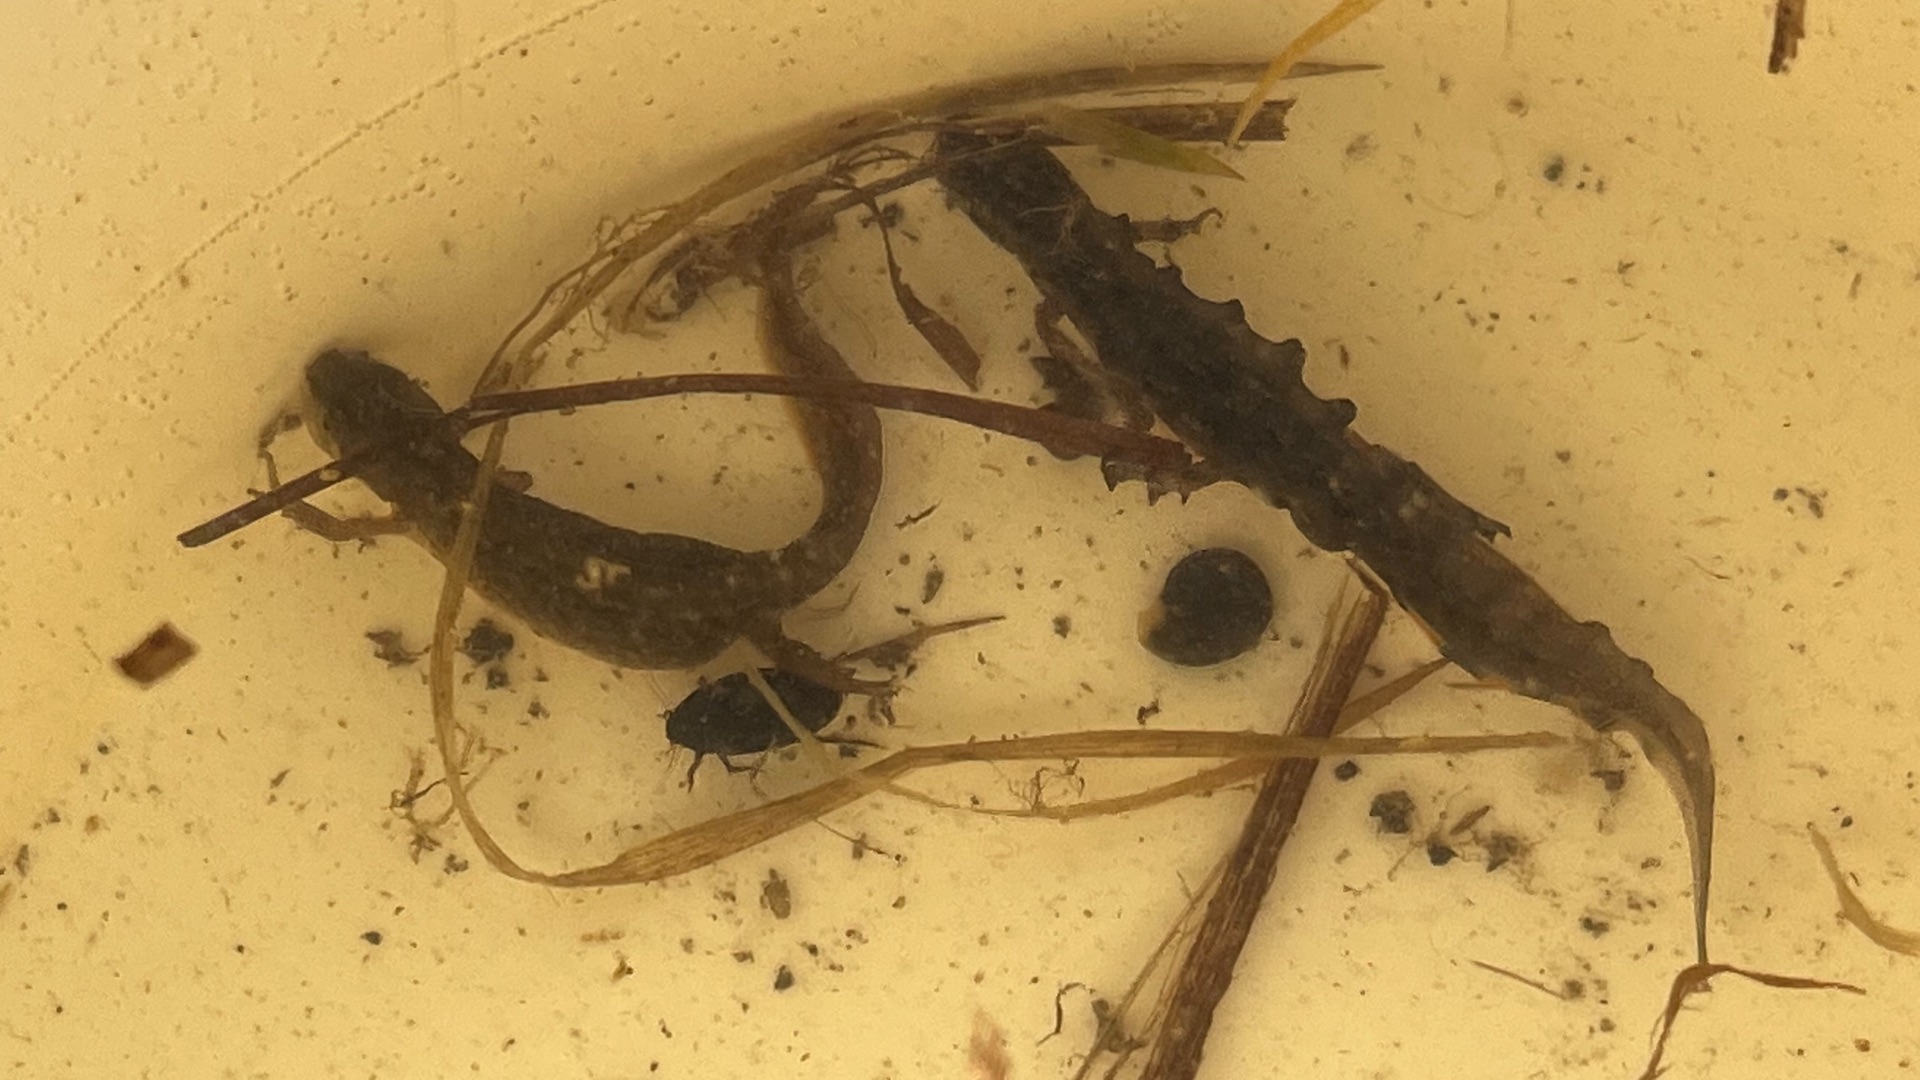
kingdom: Animalia
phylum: Chordata
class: Amphibia
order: Caudata
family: Salamandridae
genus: Lissotriton
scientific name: Lissotriton vulgaris
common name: Lille vandsalamander
